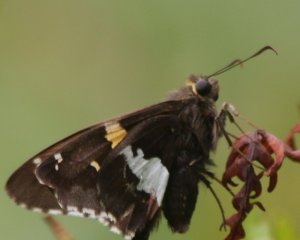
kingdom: Animalia
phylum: Arthropoda
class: Insecta
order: Lepidoptera
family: Hesperiidae
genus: Epargyreus
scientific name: Epargyreus clarus
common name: Silver-spotted Skipper
